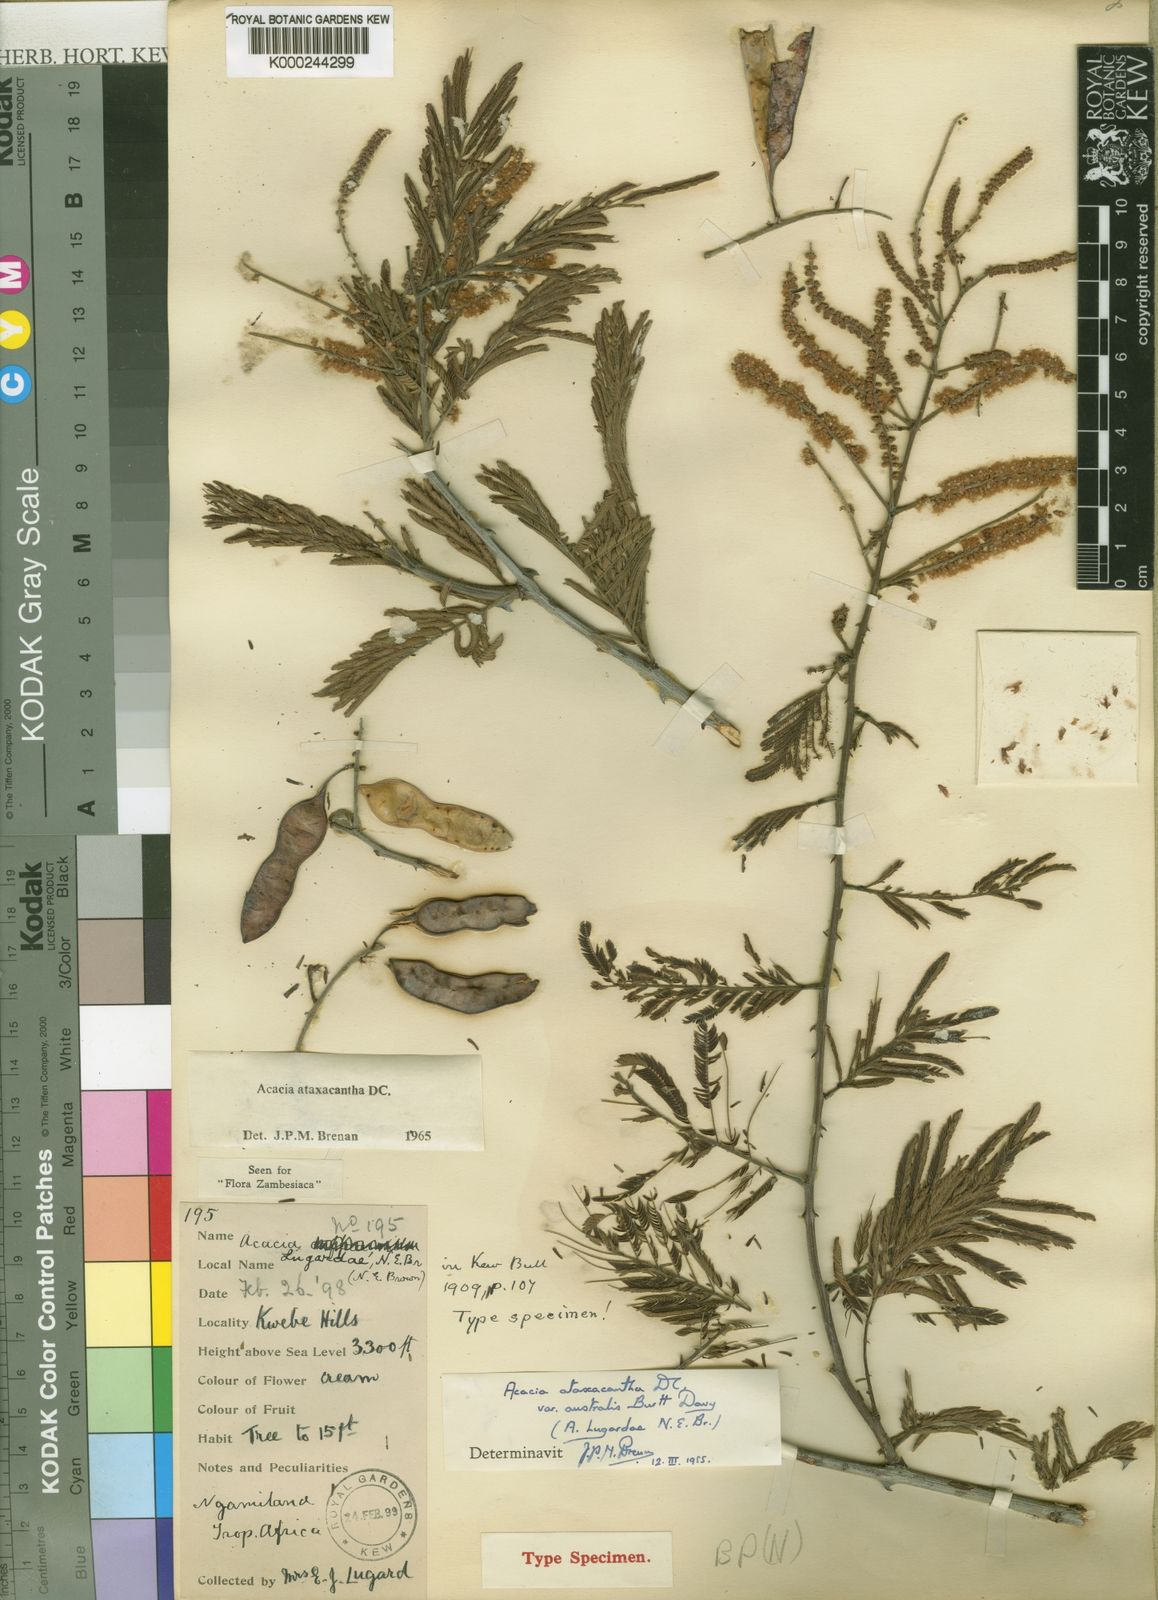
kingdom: Plantae
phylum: Tracheophyta
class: Magnoliopsida
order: Fabales
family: Fabaceae
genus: Senegalia
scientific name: Senegalia ataxacantha
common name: Flame acacia
